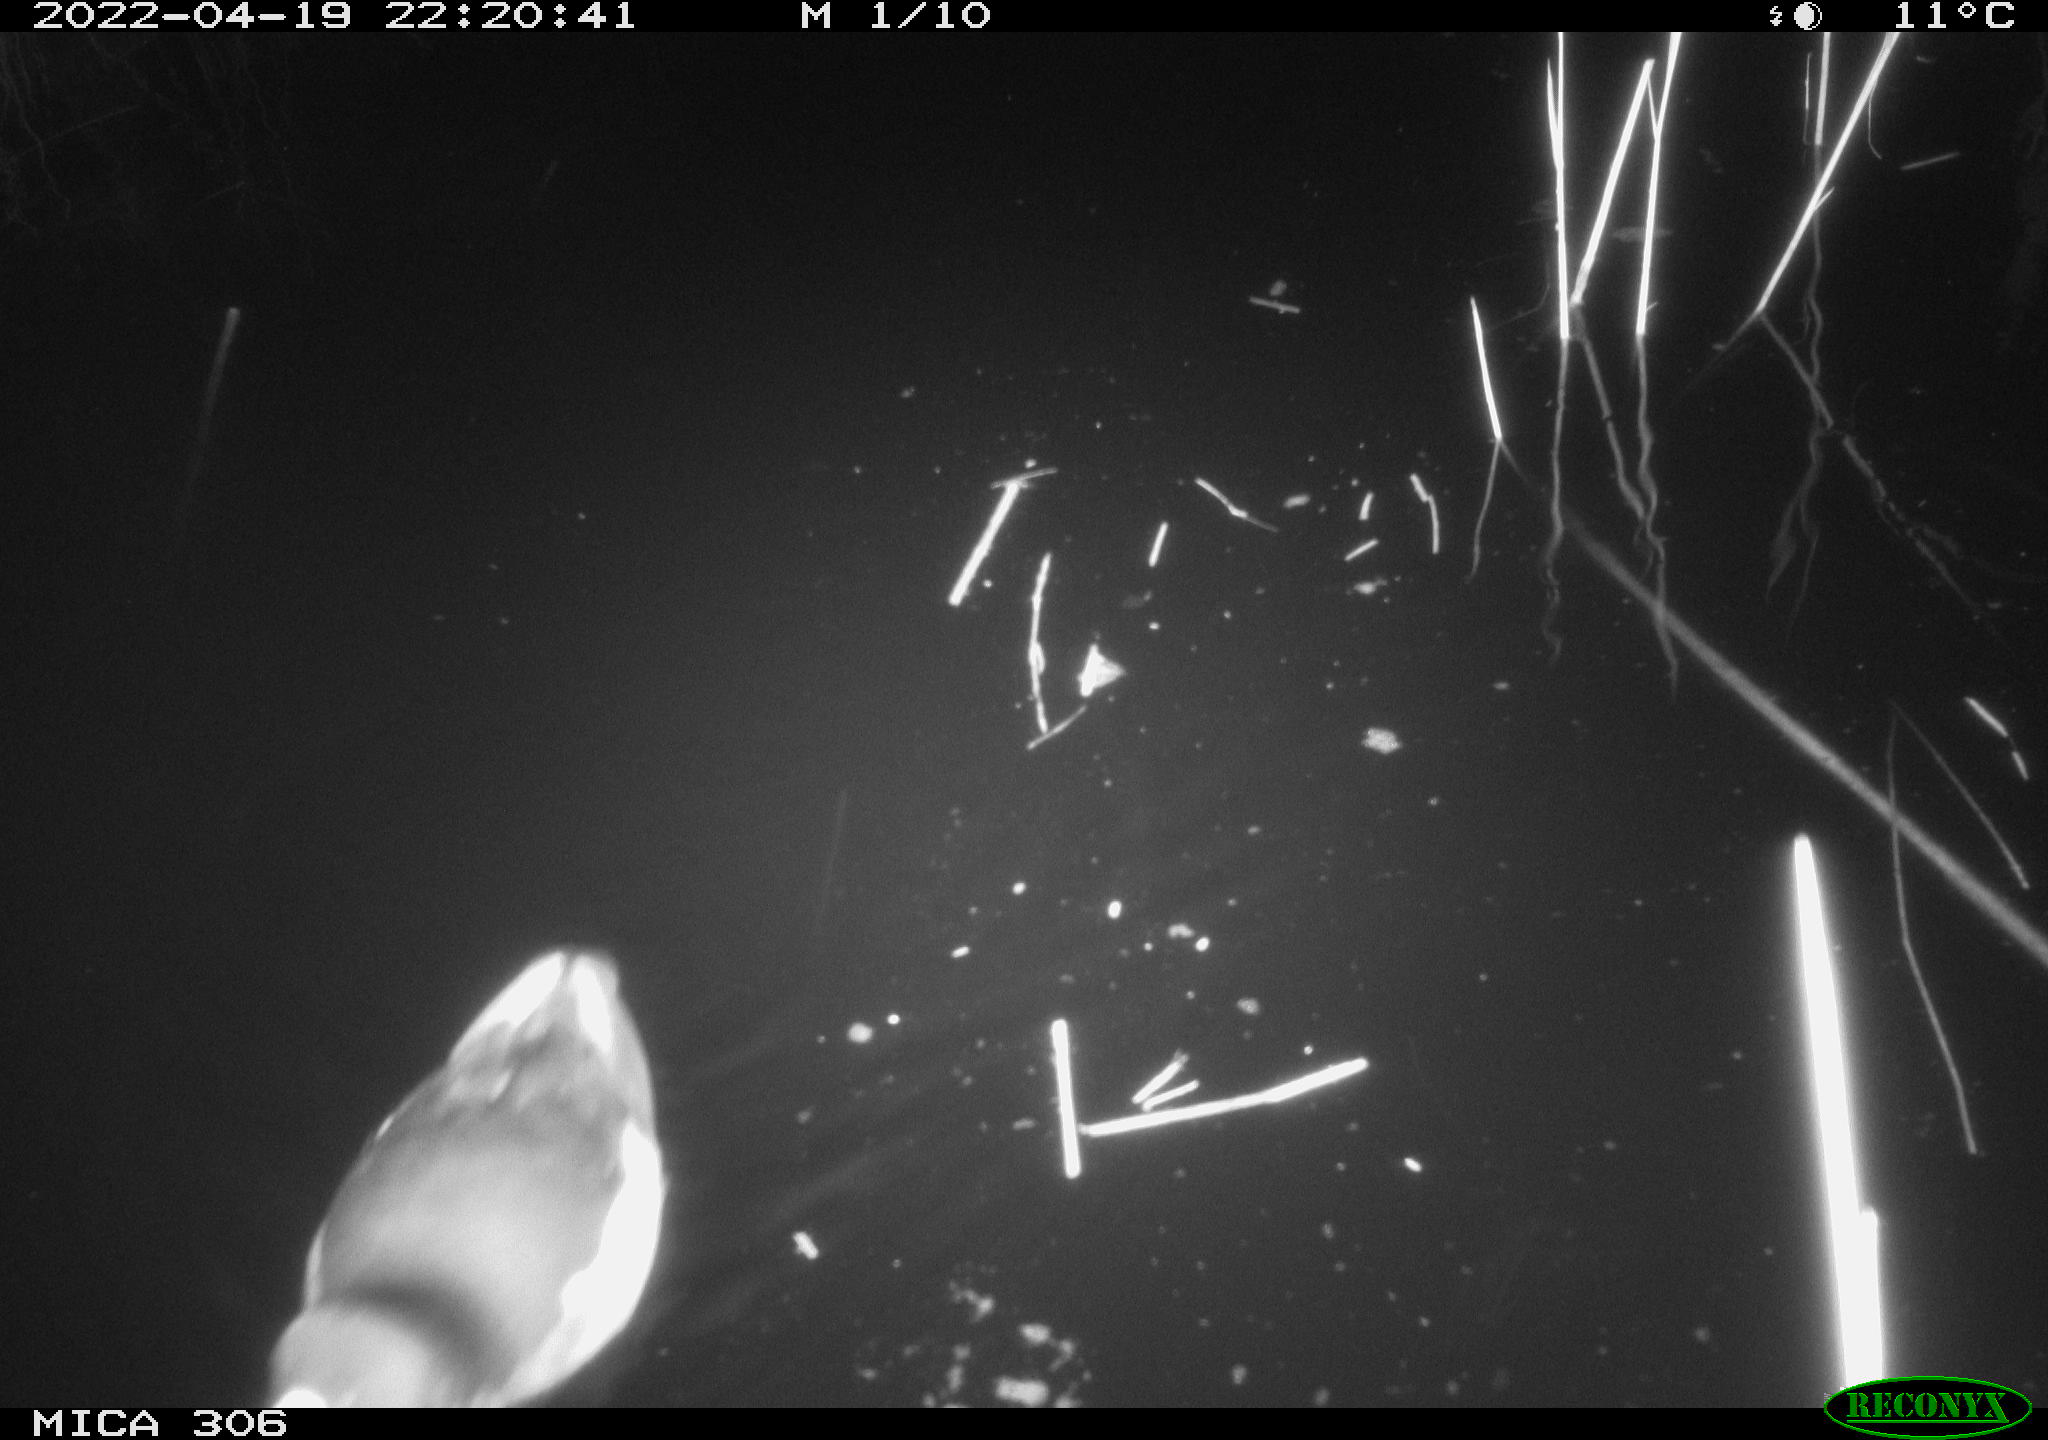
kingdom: Animalia
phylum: Chordata
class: Aves
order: Gruiformes
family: Rallidae
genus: Gallinula
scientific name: Gallinula chloropus
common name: Common moorhen
